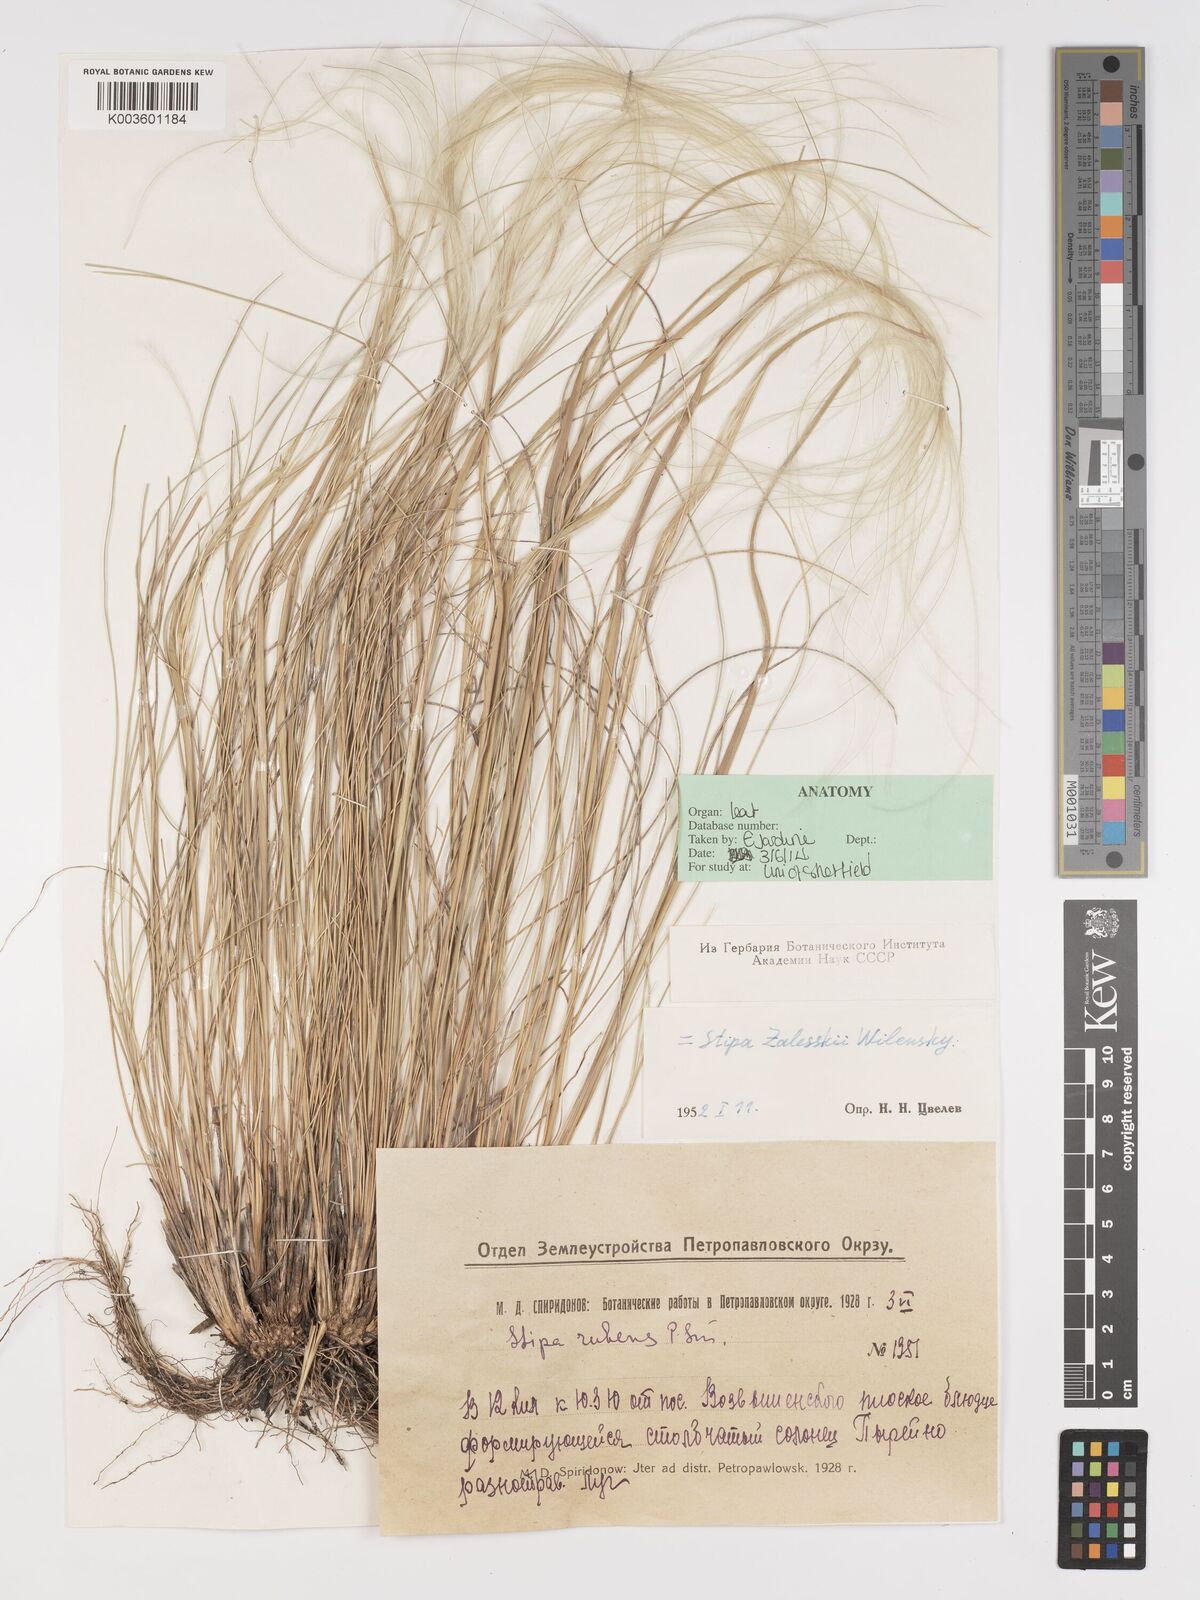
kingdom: Plantae
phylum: Tracheophyta
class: Liliopsida
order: Poales
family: Poaceae
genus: Stipa
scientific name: Stipa
